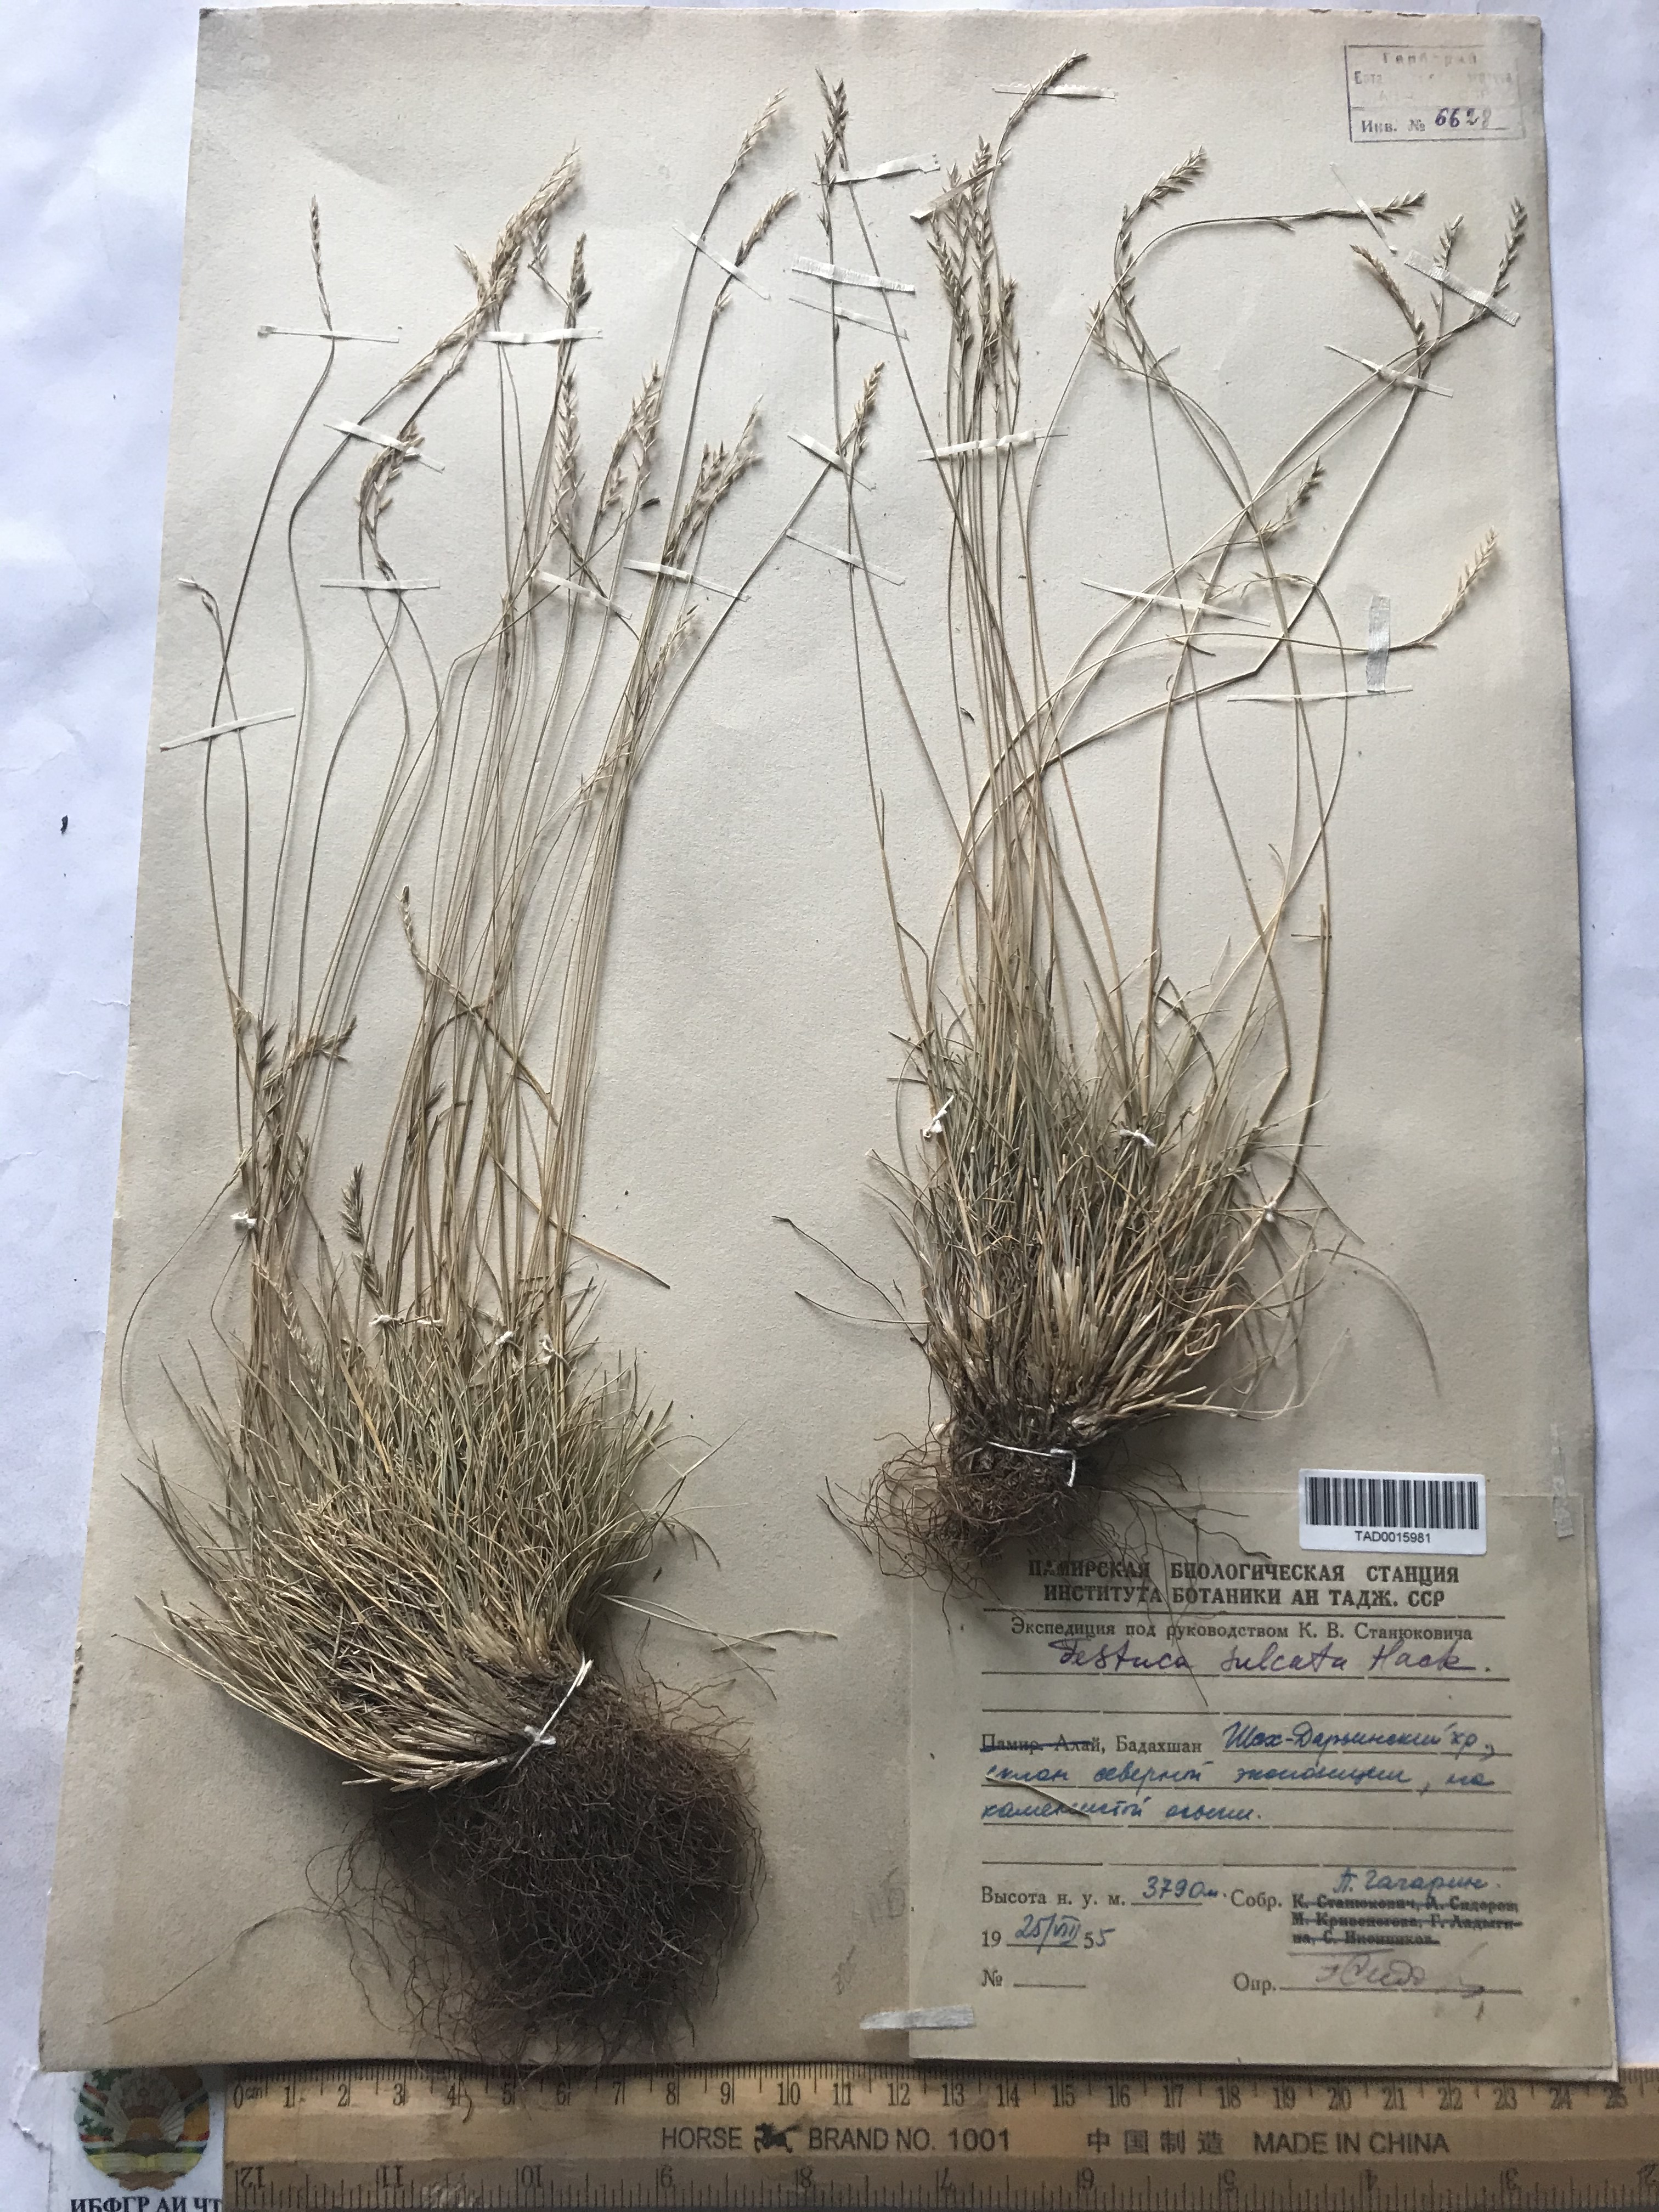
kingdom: Plantae
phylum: Tracheophyta
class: Liliopsida
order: Poales
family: Poaceae
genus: Festuca
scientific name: Festuca sulcata
